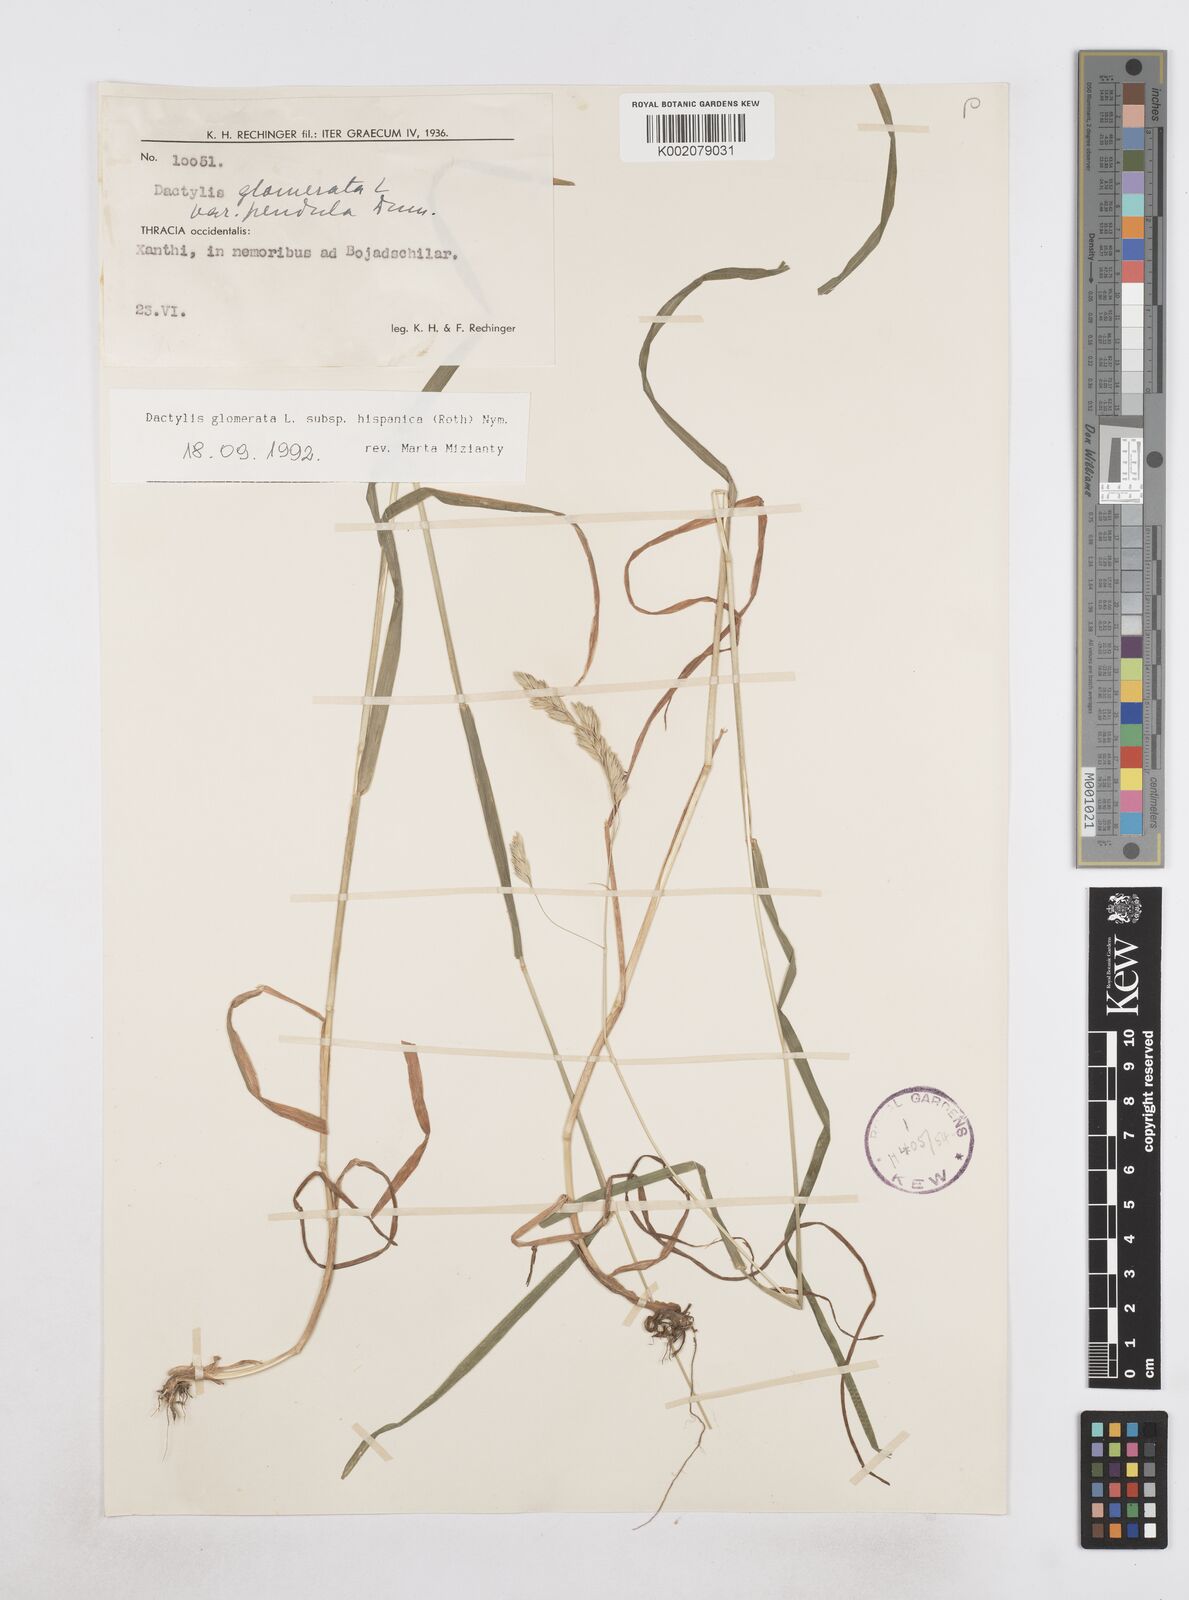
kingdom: Plantae
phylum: Tracheophyta
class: Liliopsida
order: Poales
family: Poaceae
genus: Dactylis
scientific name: Dactylis glomerata
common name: Orchardgrass
